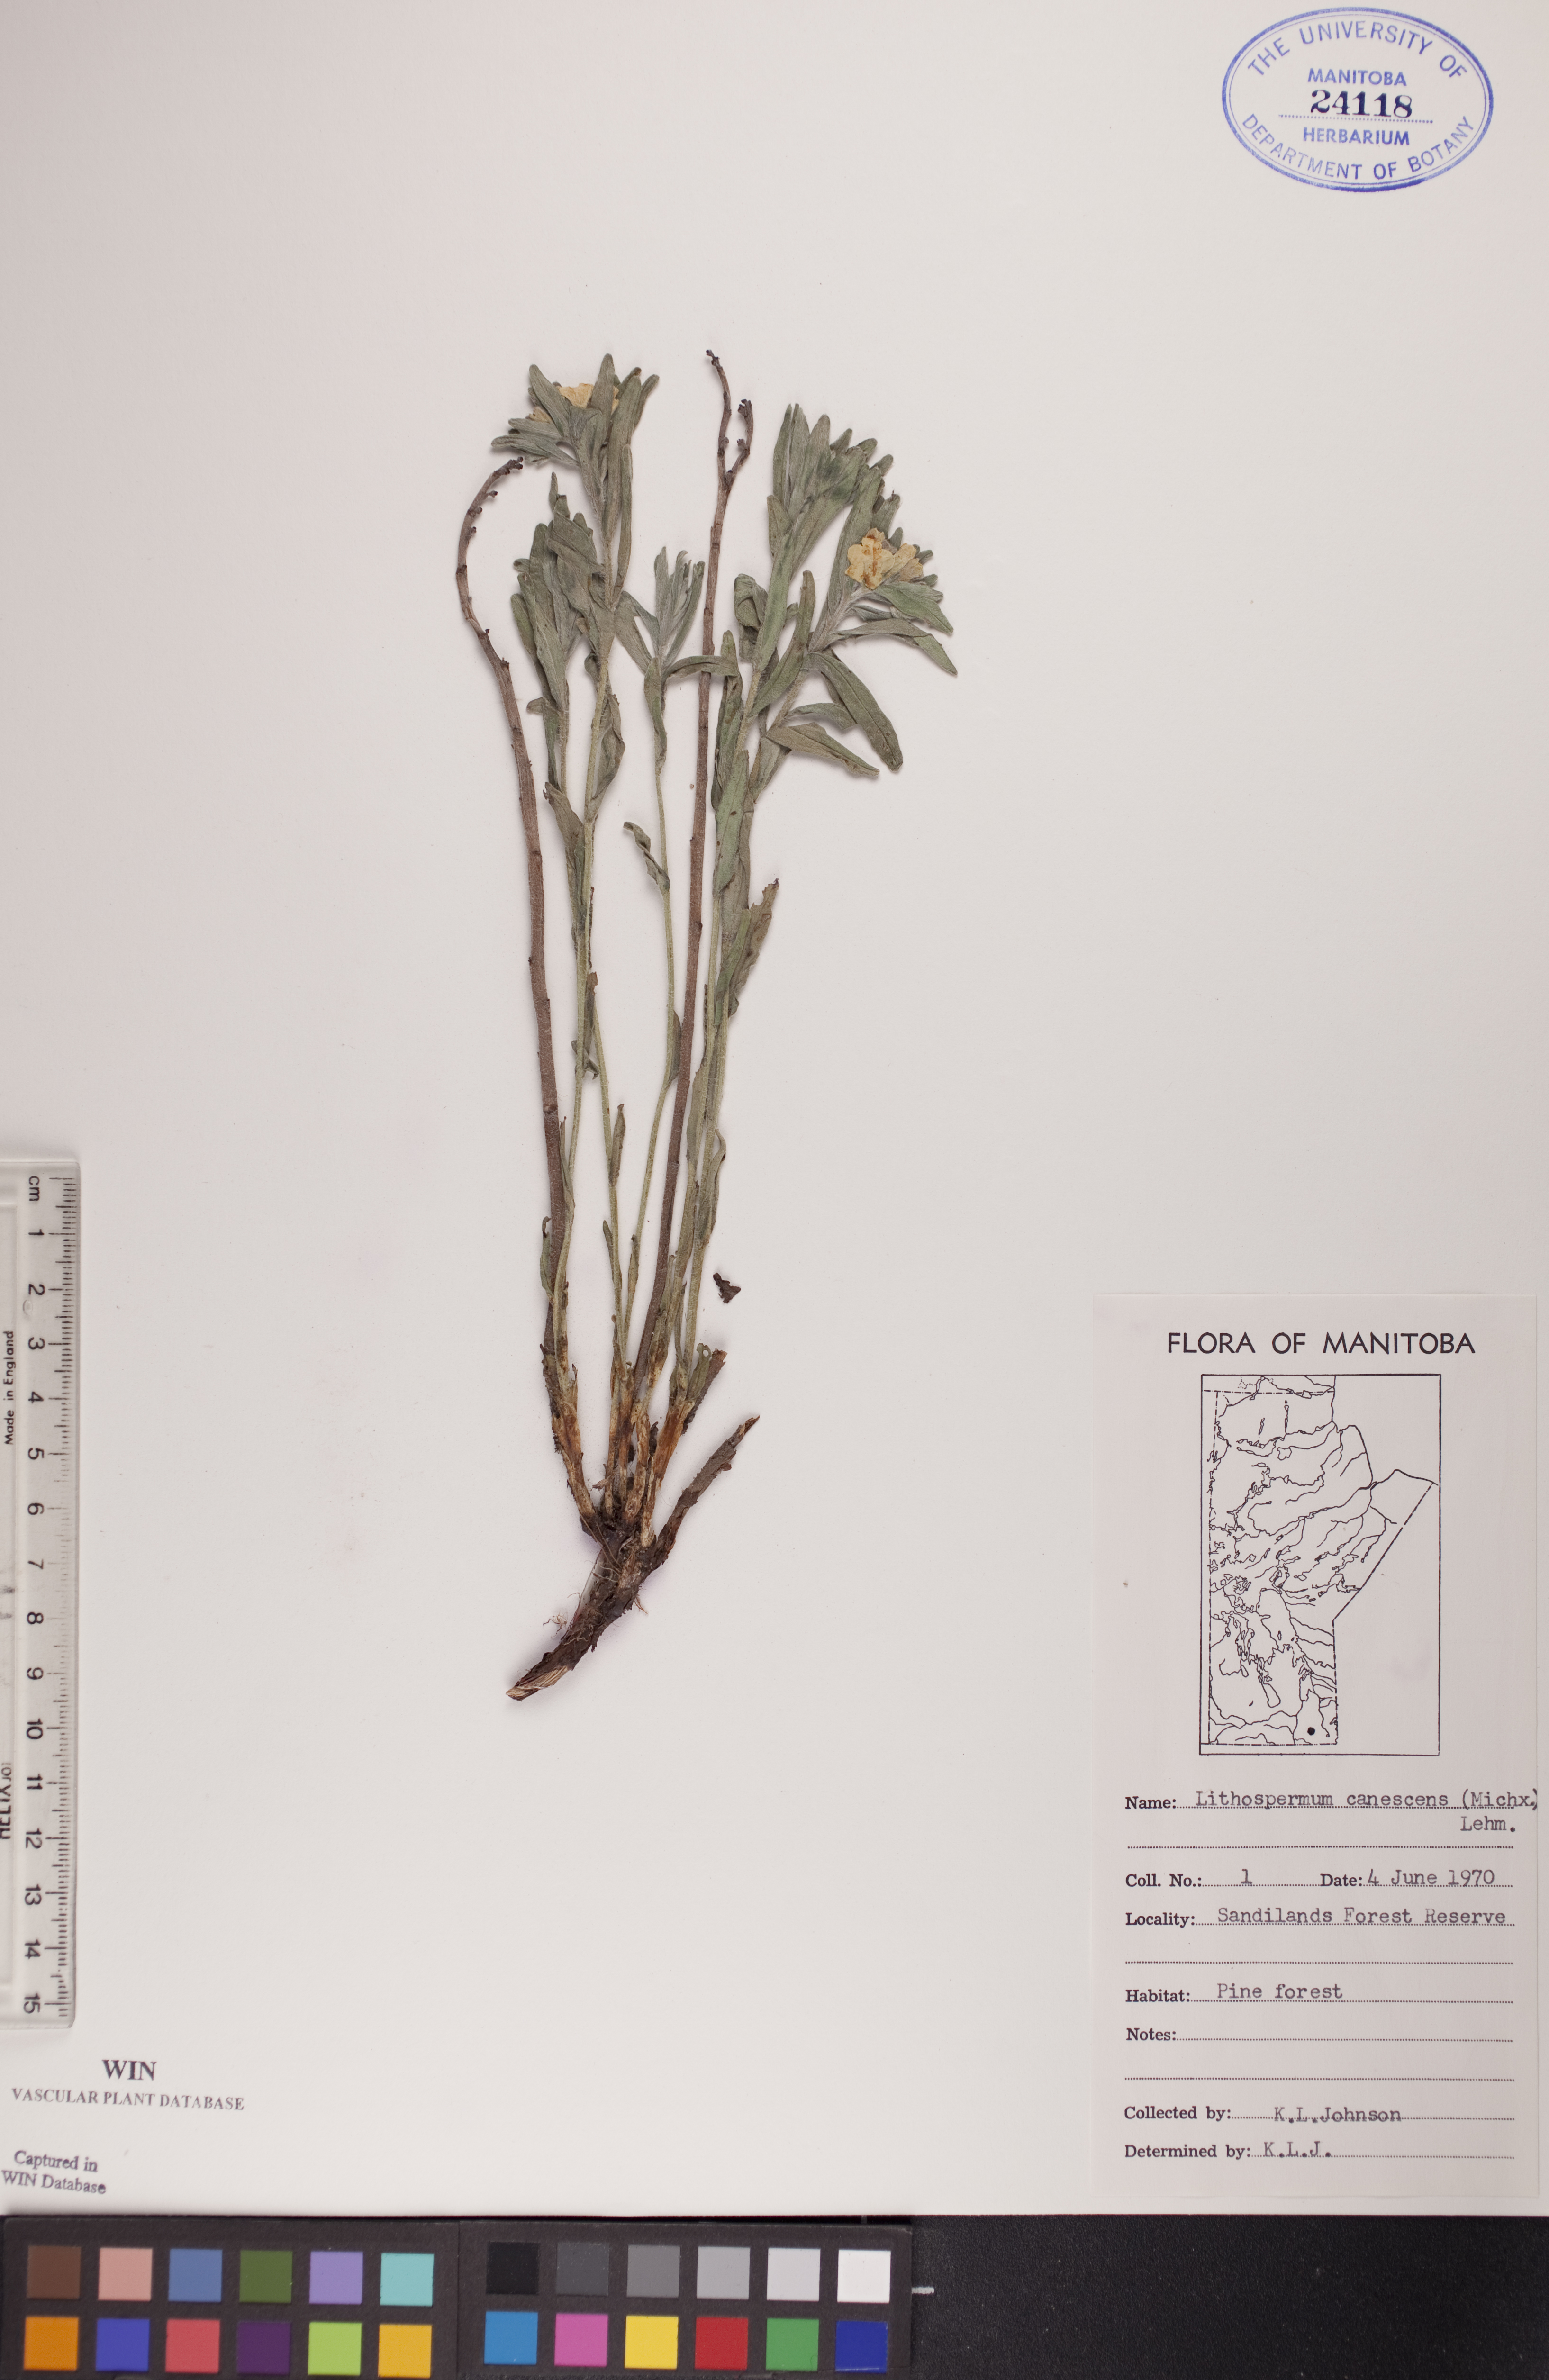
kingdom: Plantae
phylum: Tracheophyta
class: Magnoliopsida
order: Boraginales
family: Boraginaceae
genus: Lithospermum
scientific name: Lithospermum canescens
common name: Hoary puccoon
